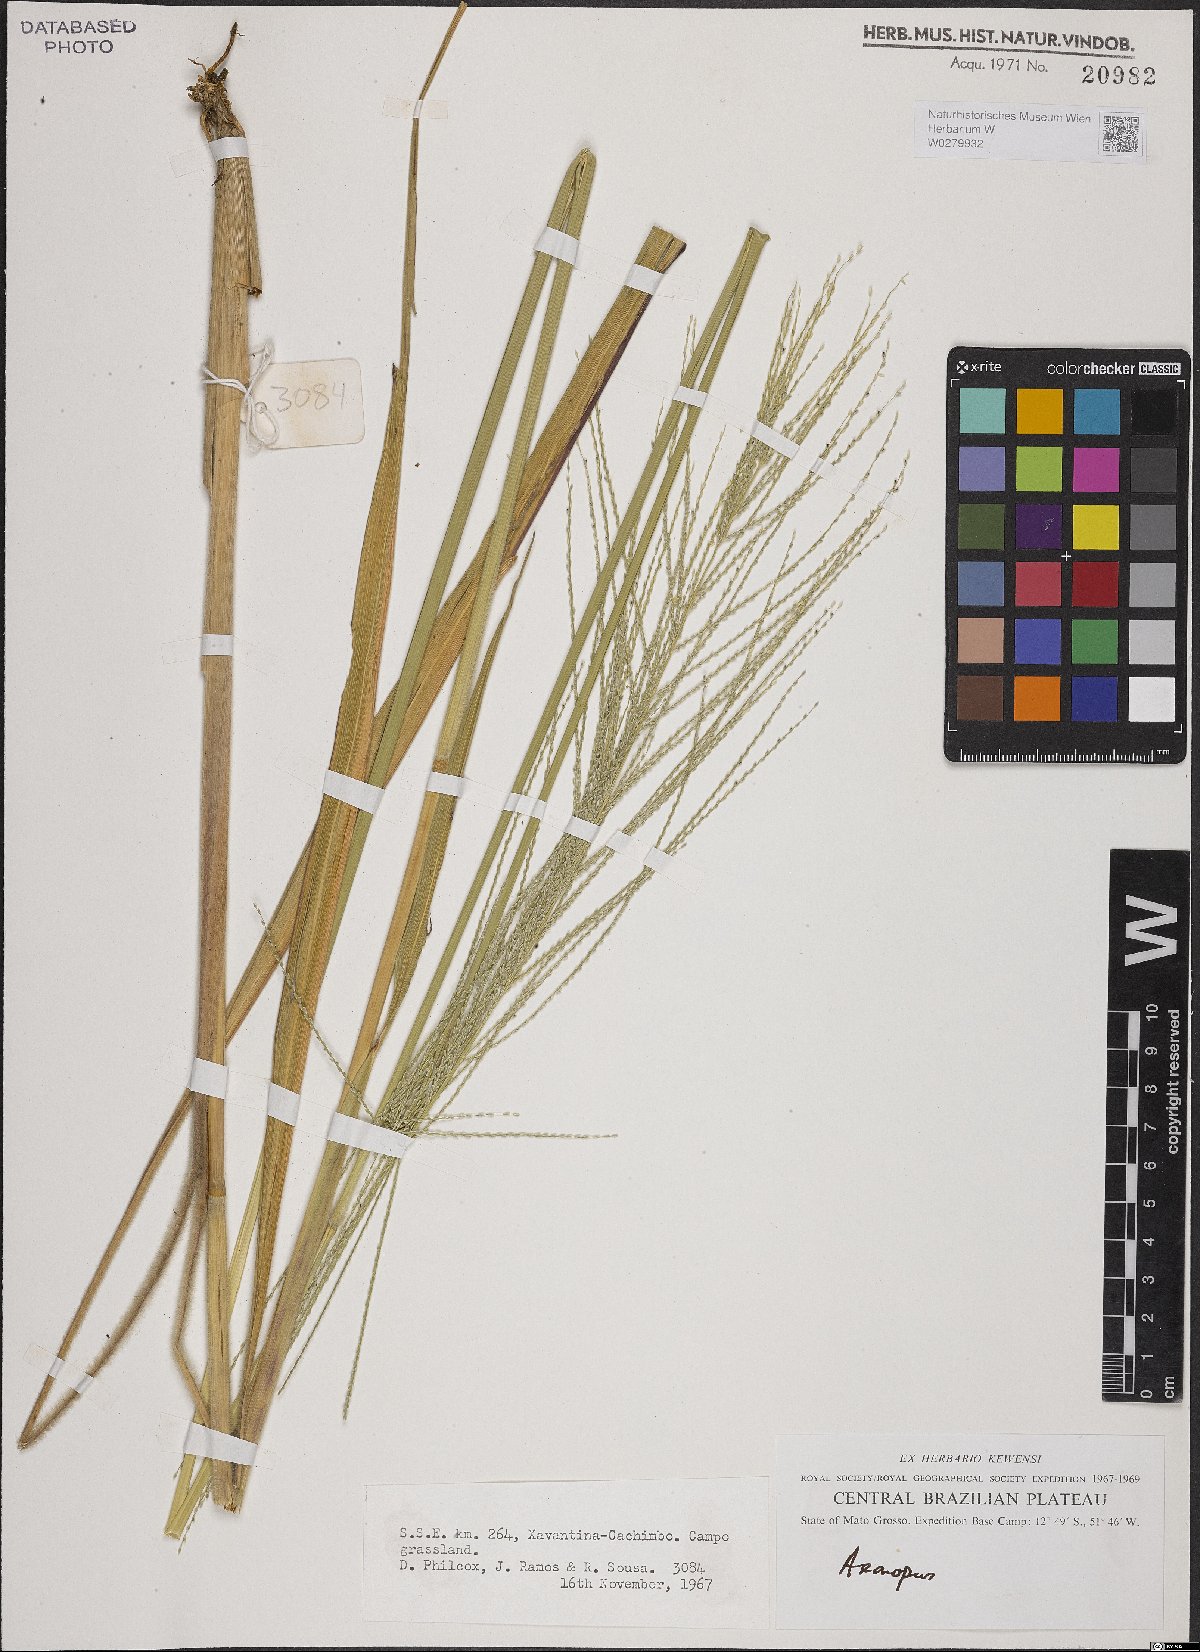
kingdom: Plantae
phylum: Tracheophyta
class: Liliopsida
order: Poales
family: Poaceae
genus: Axonopus
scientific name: Axonopus
